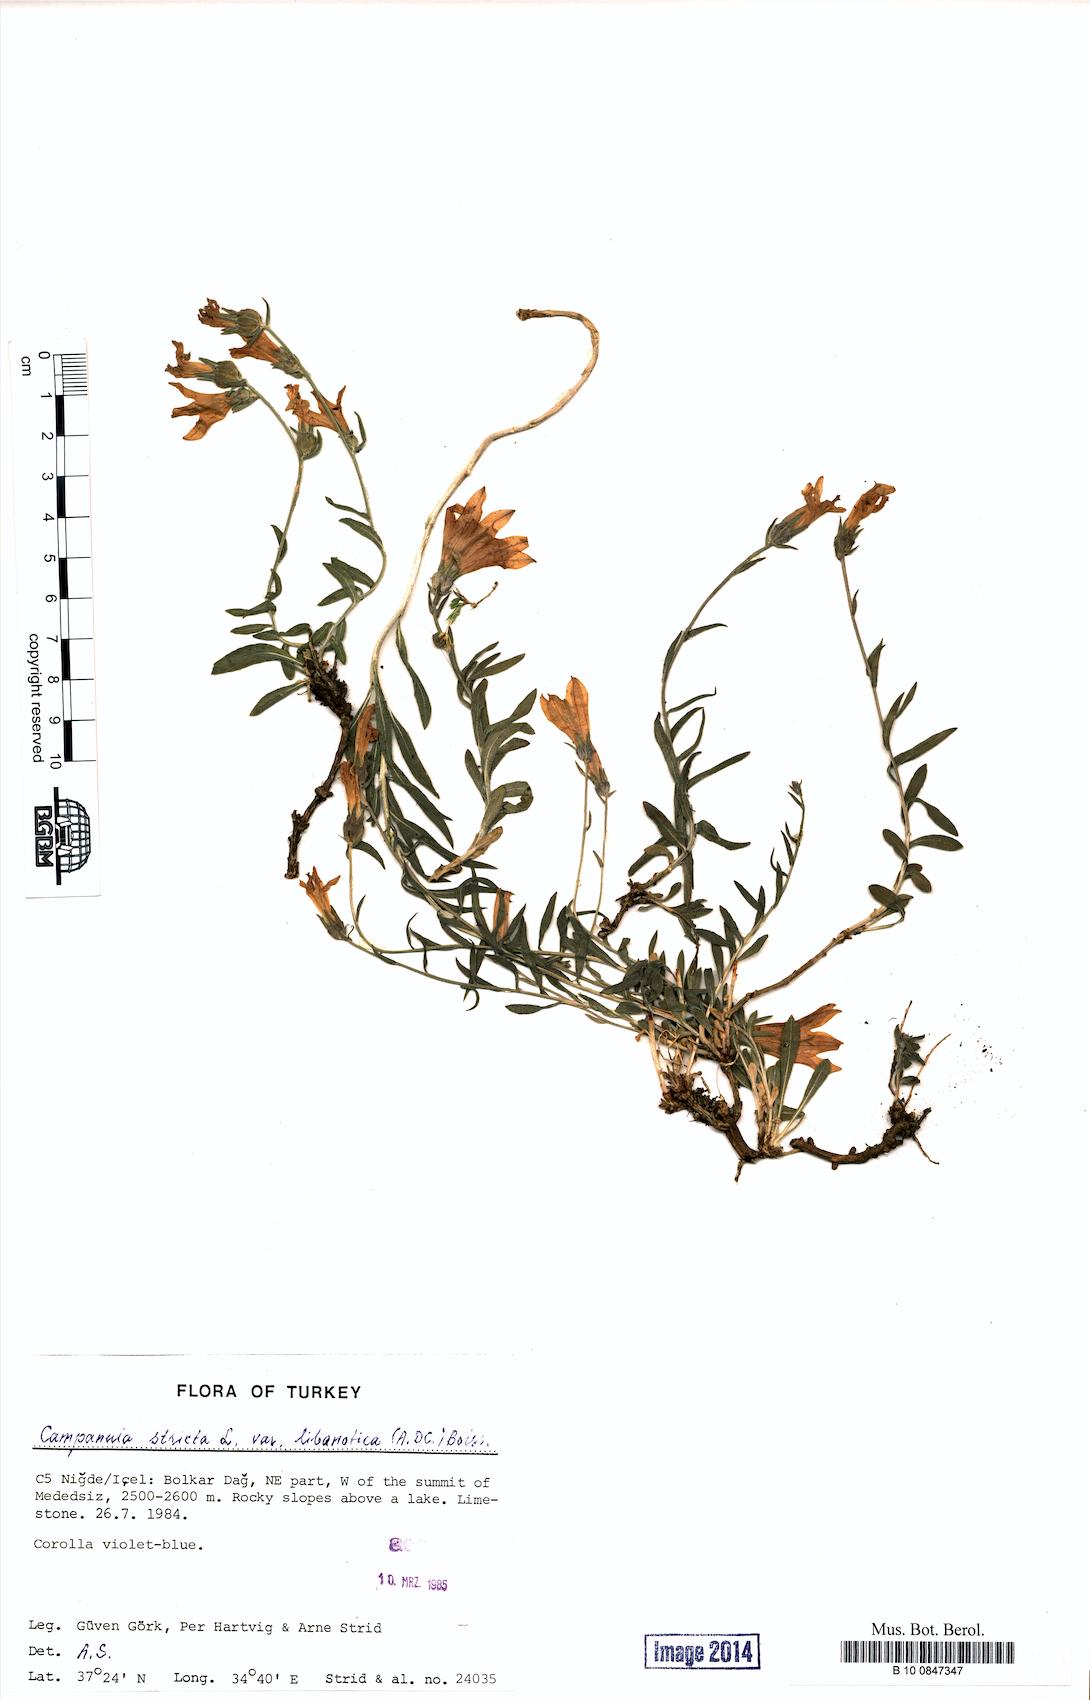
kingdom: Plantae
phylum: Tracheophyta
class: Magnoliopsida
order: Asterales
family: Campanulaceae
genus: Campanula
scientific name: Campanula stricta
